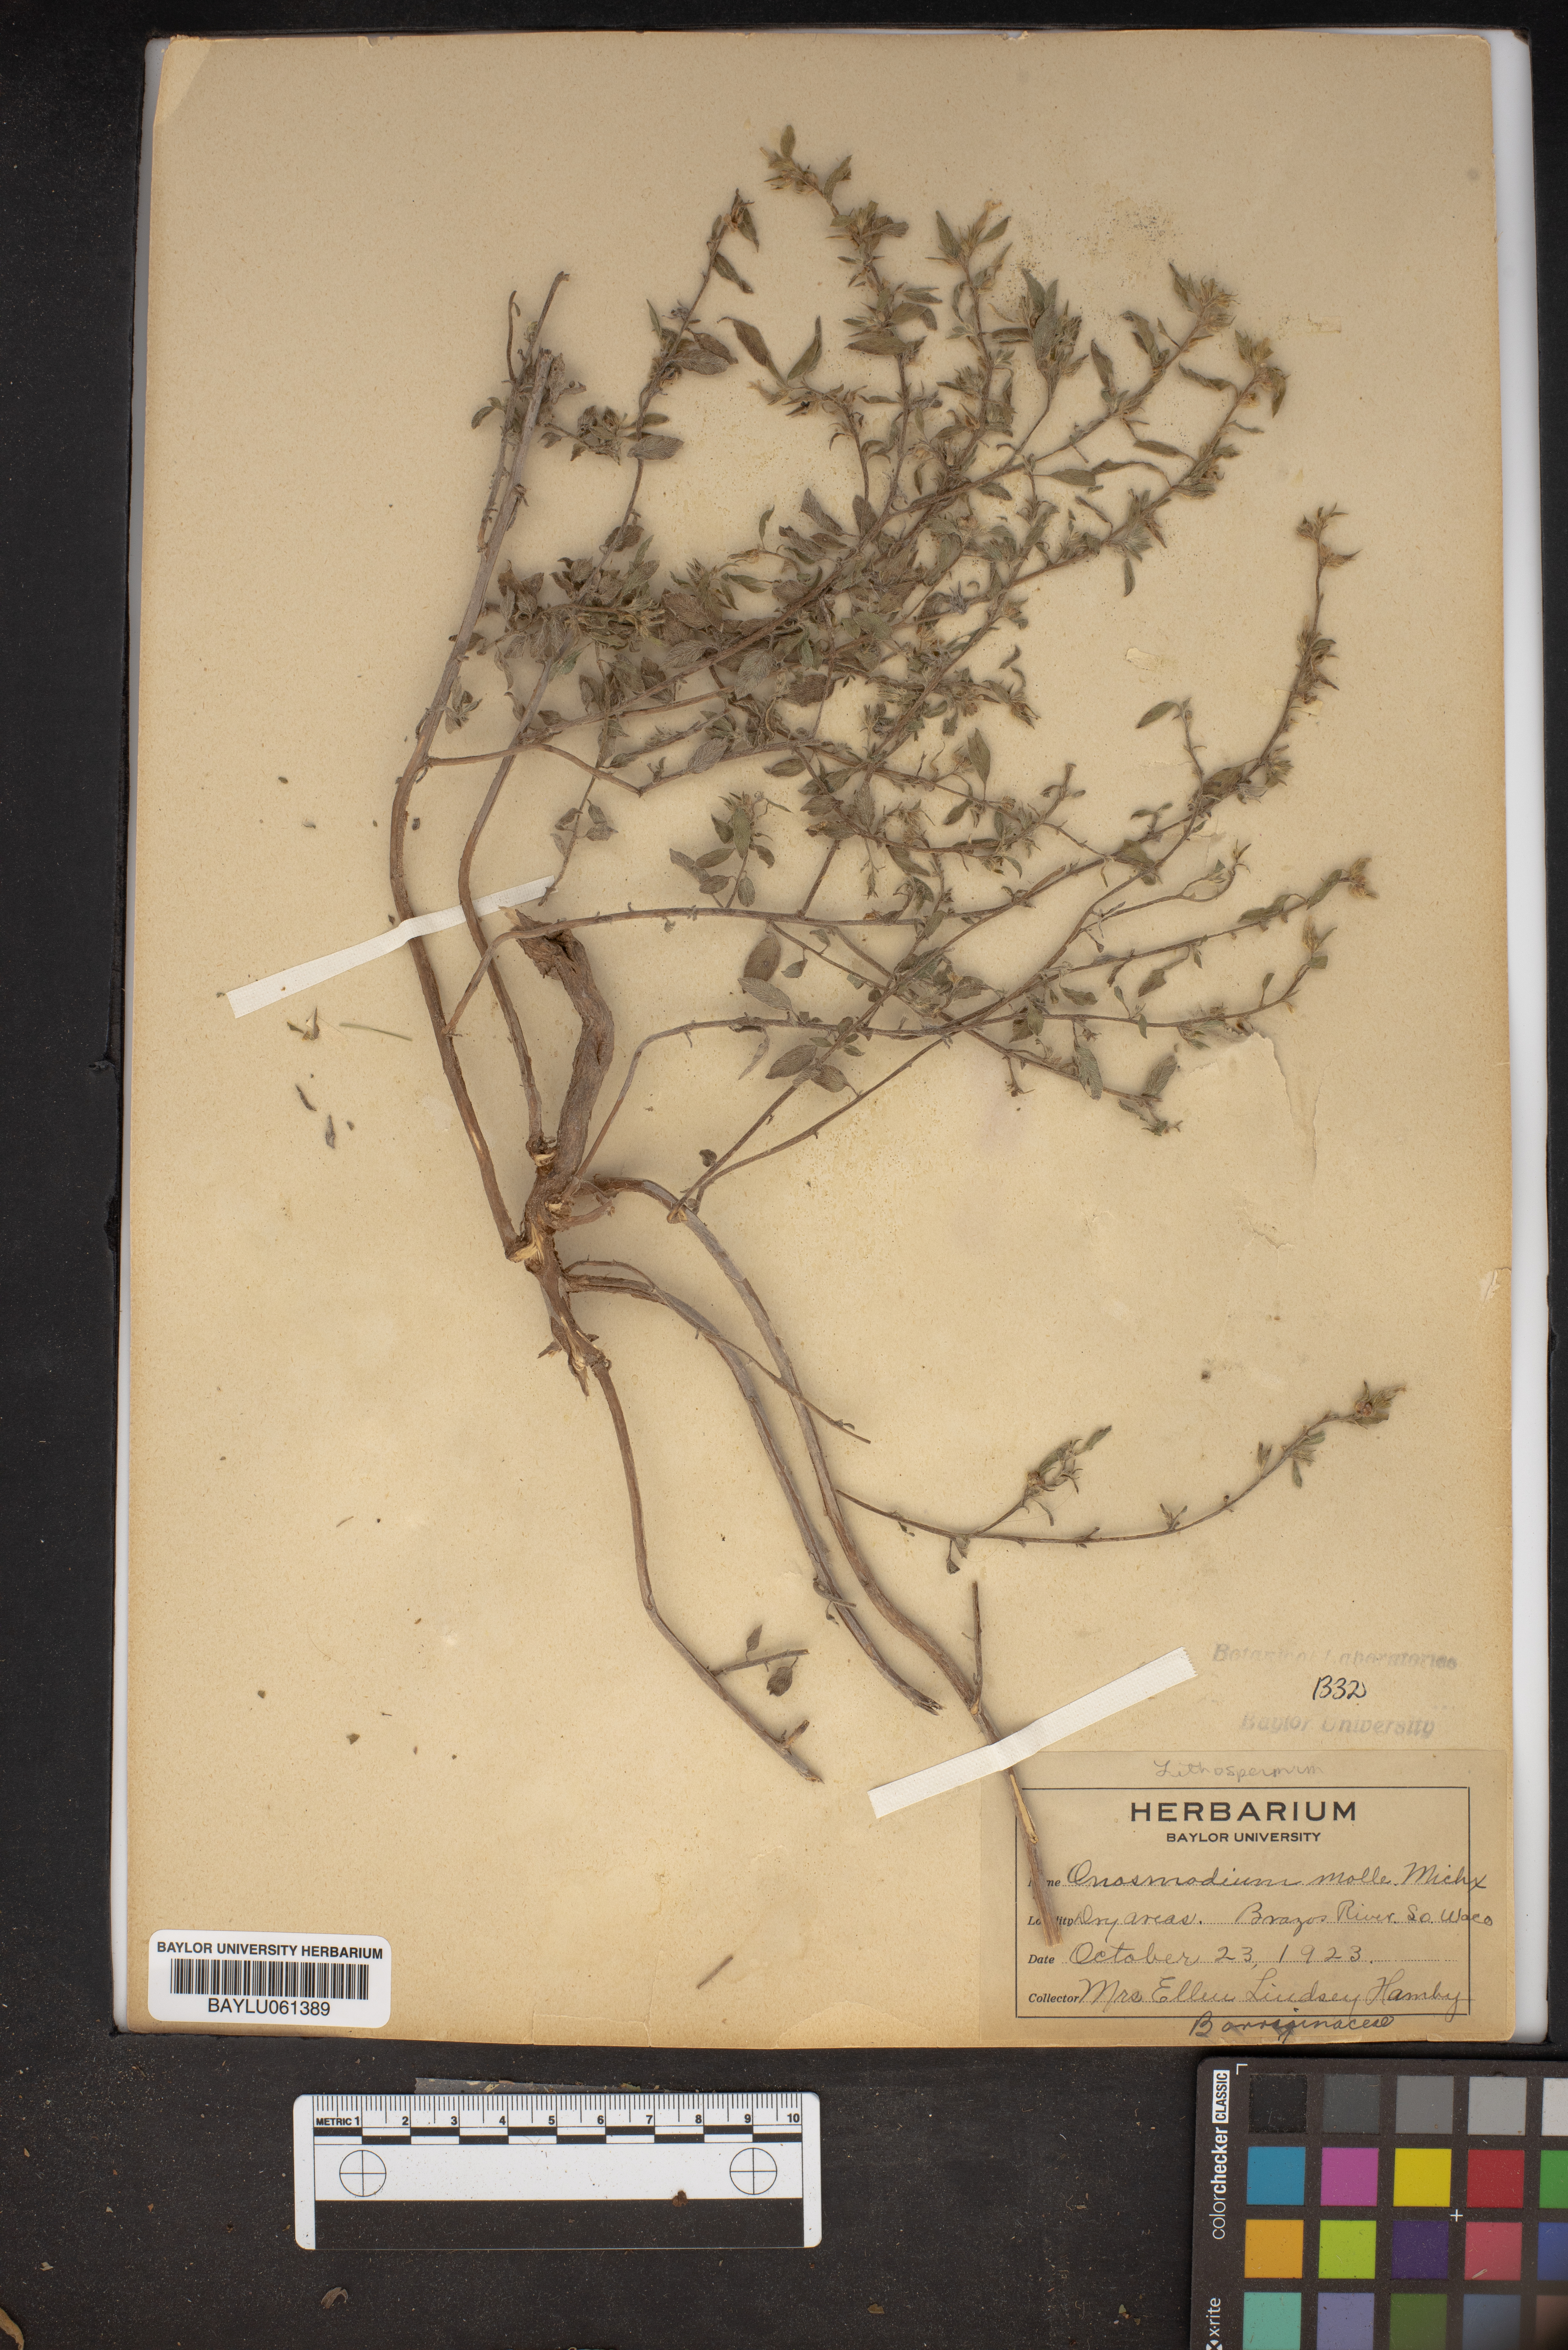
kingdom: Plantae
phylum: Tracheophyta
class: Magnoliopsida
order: Boraginales
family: Boraginaceae
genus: Lithospermum
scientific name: Lithospermum molle
